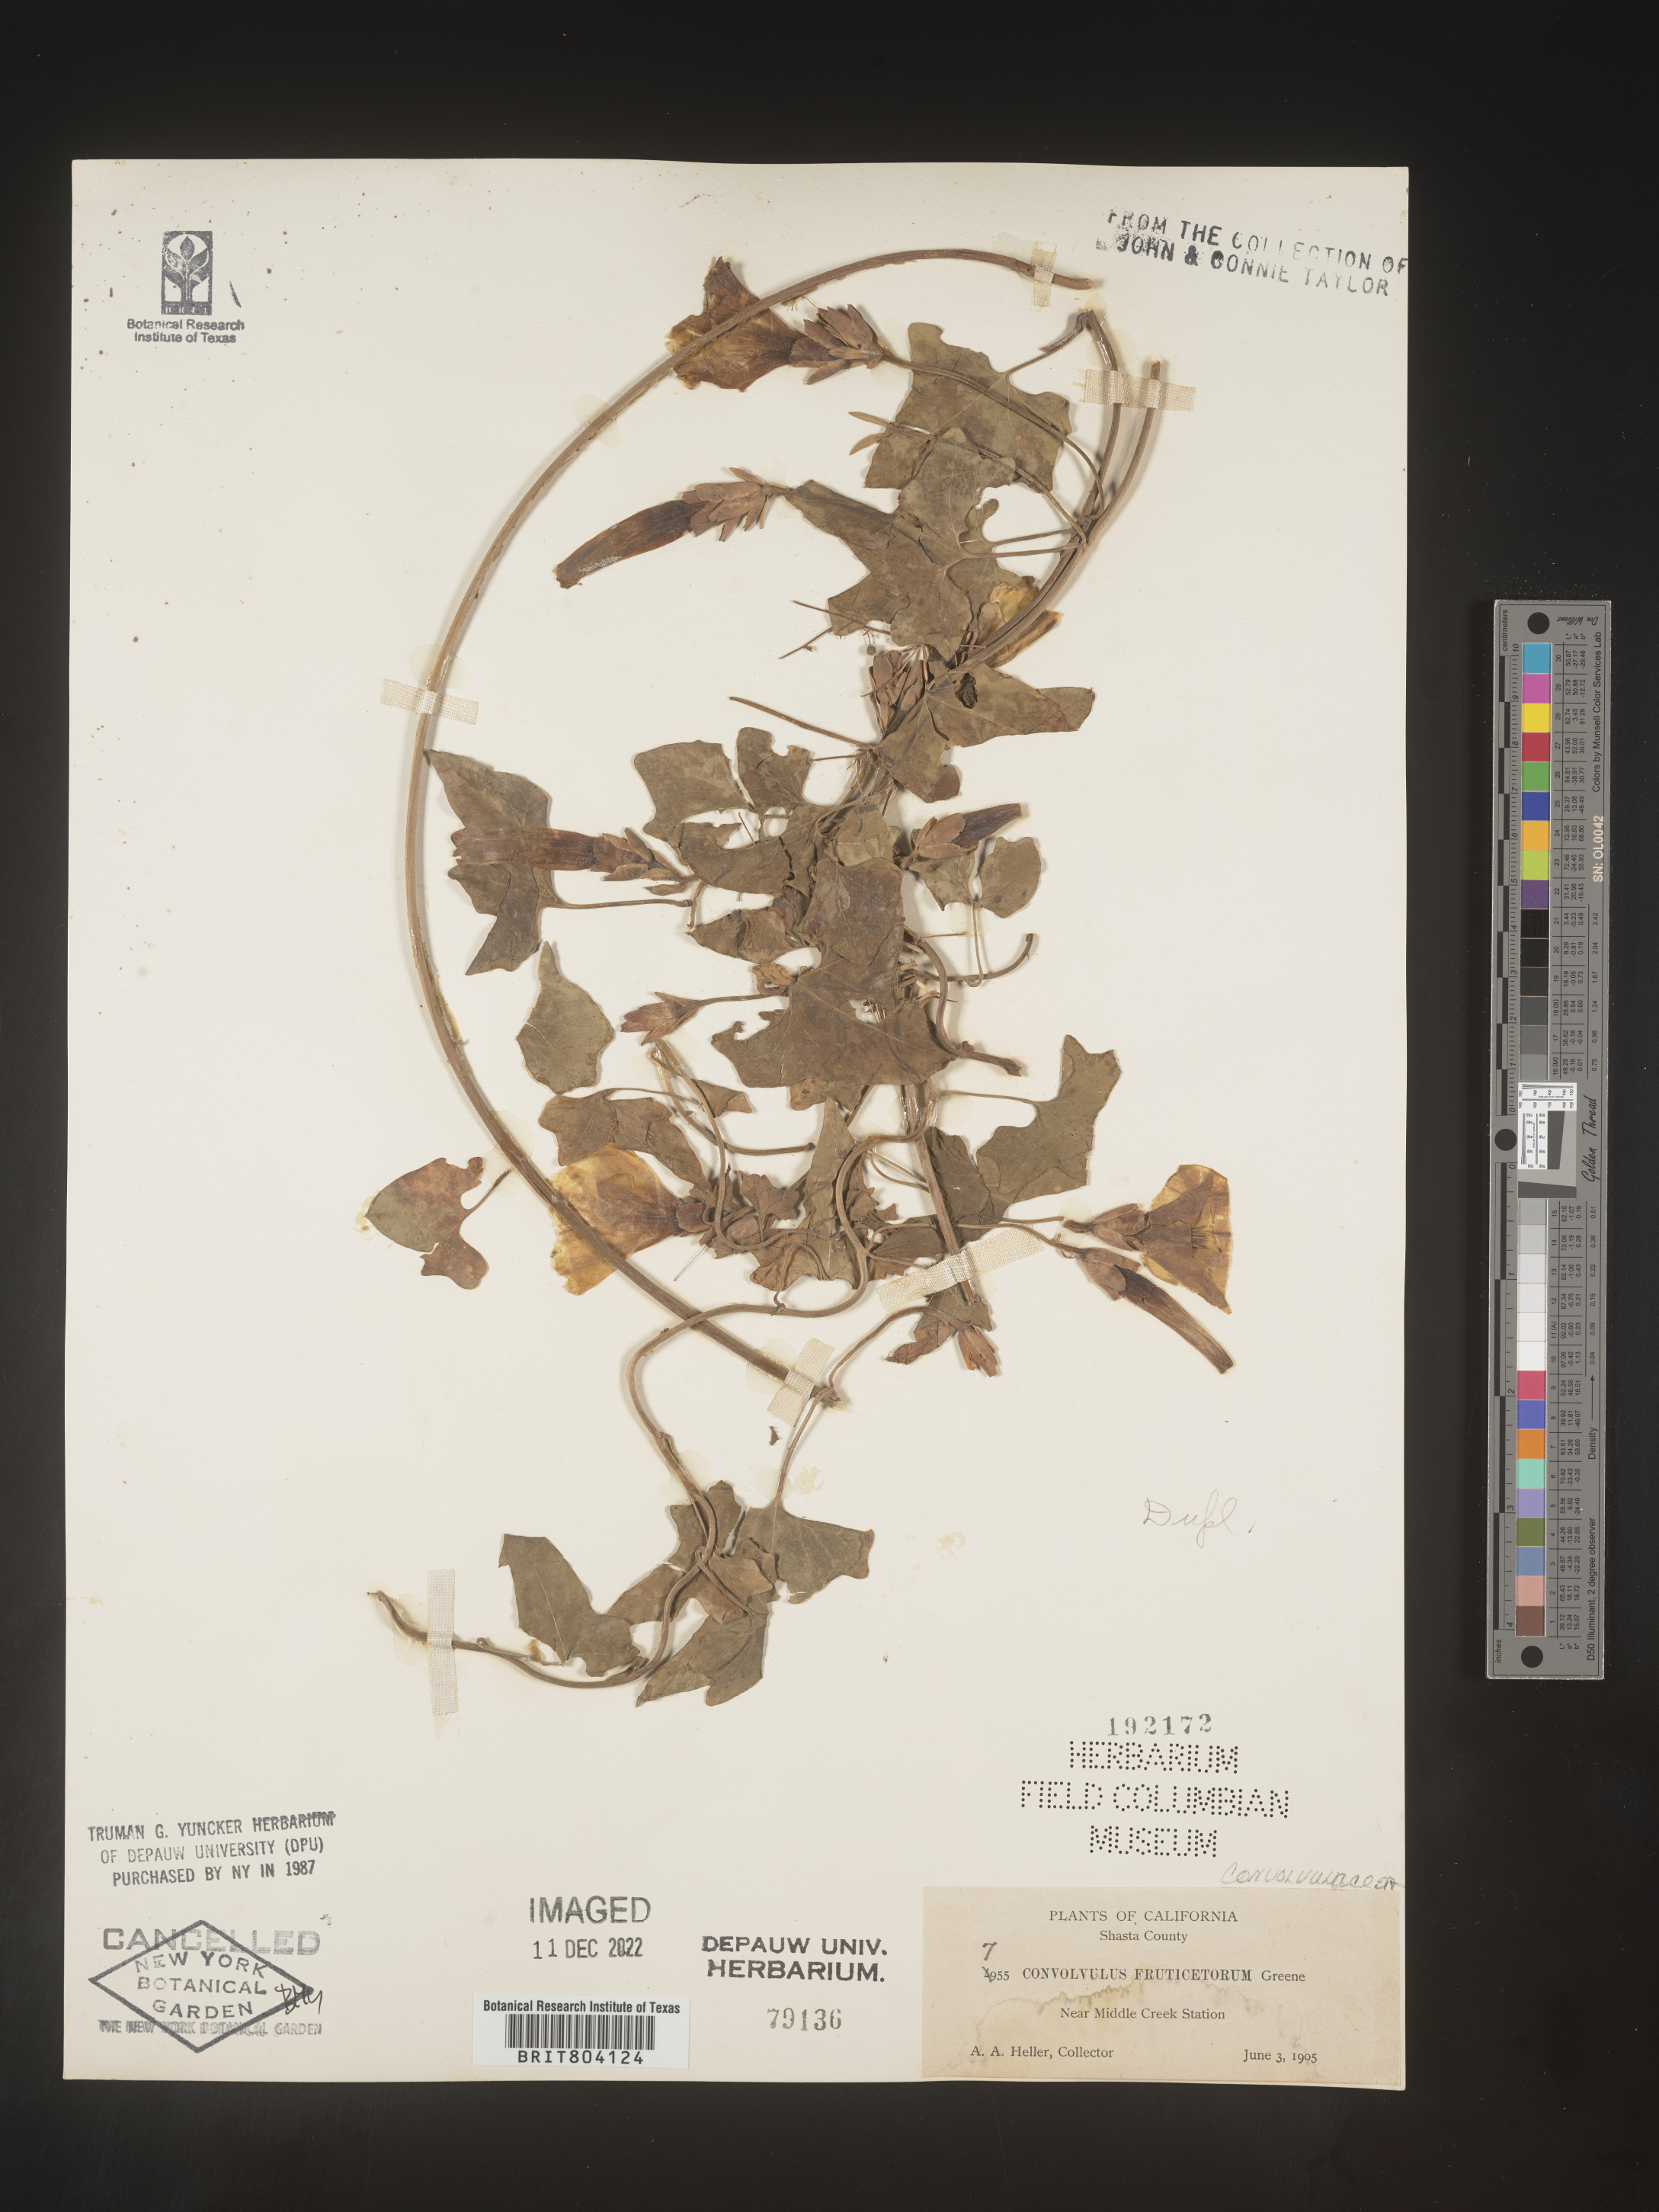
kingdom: Plantae
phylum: Tracheophyta
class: Magnoliopsida
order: Solanales
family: Convolvulaceae
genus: Convolvulus
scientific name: Convolvulus
